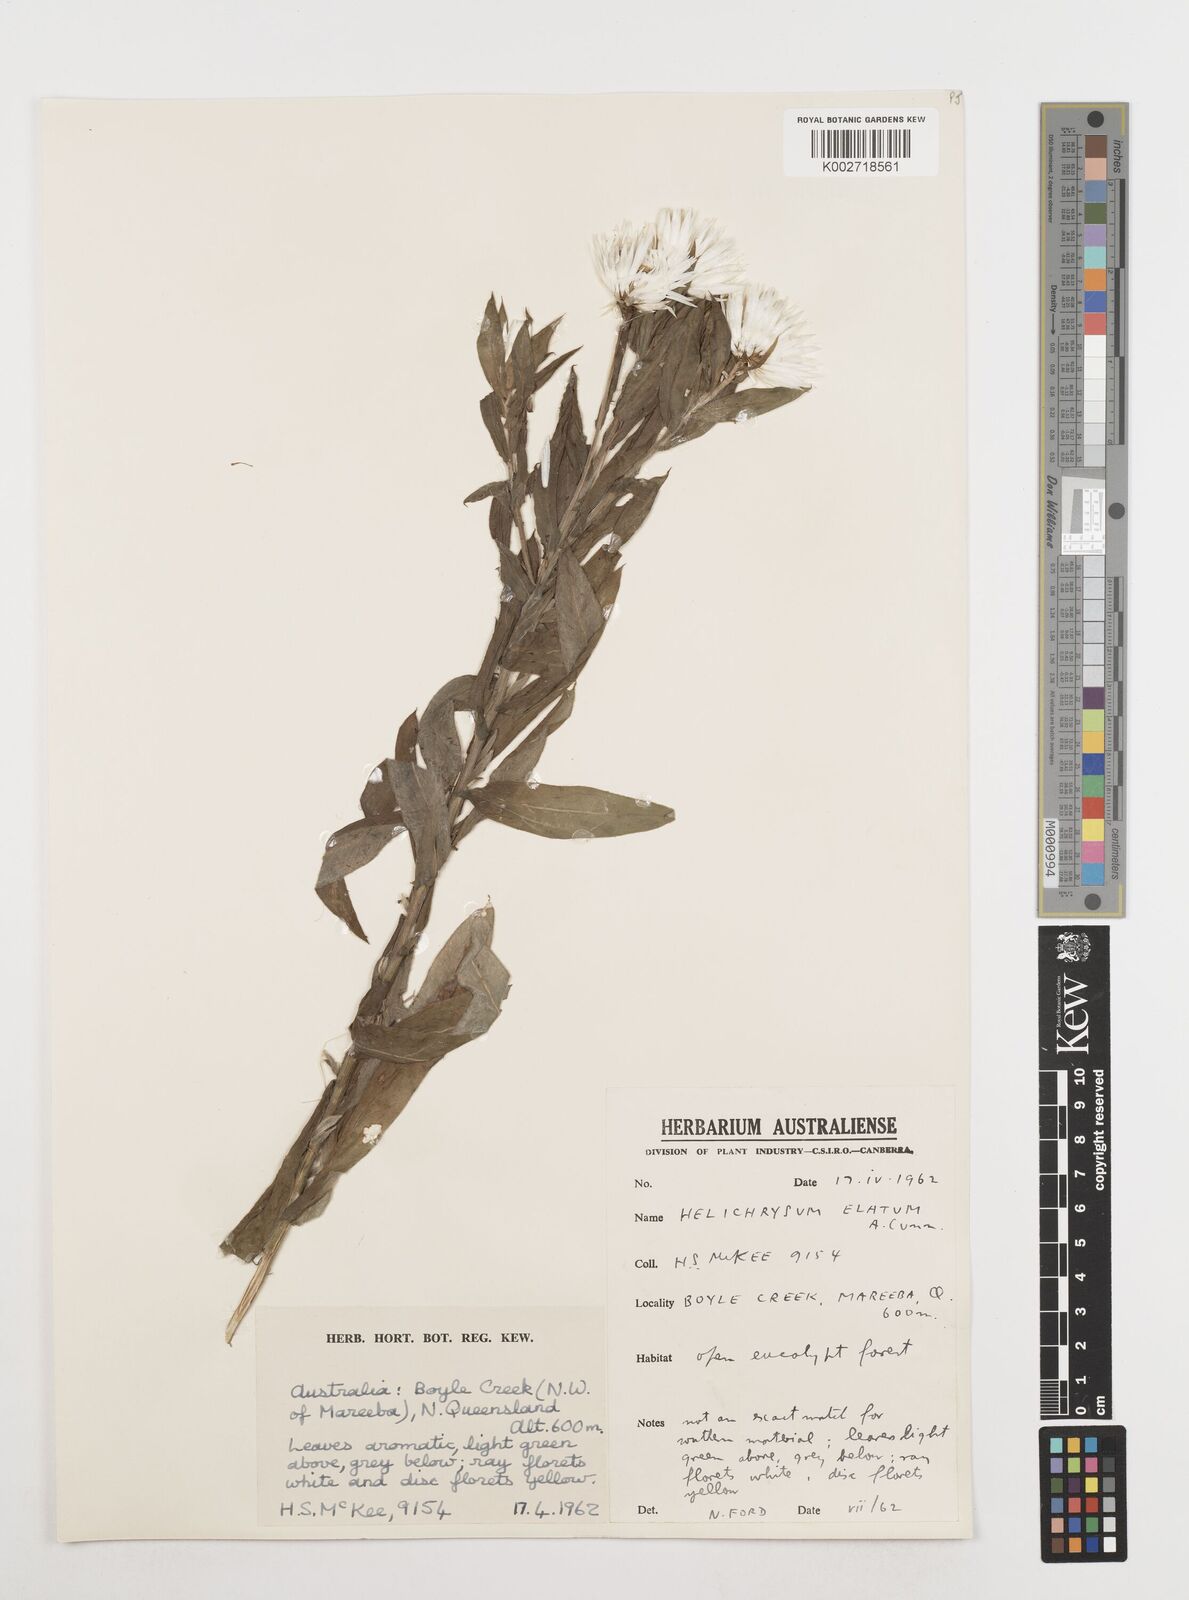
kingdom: Plantae
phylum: Tracheophyta
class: Magnoliopsida
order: Asterales
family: Asteraceae
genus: Leucozoma
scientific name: Leucozoma elatum
